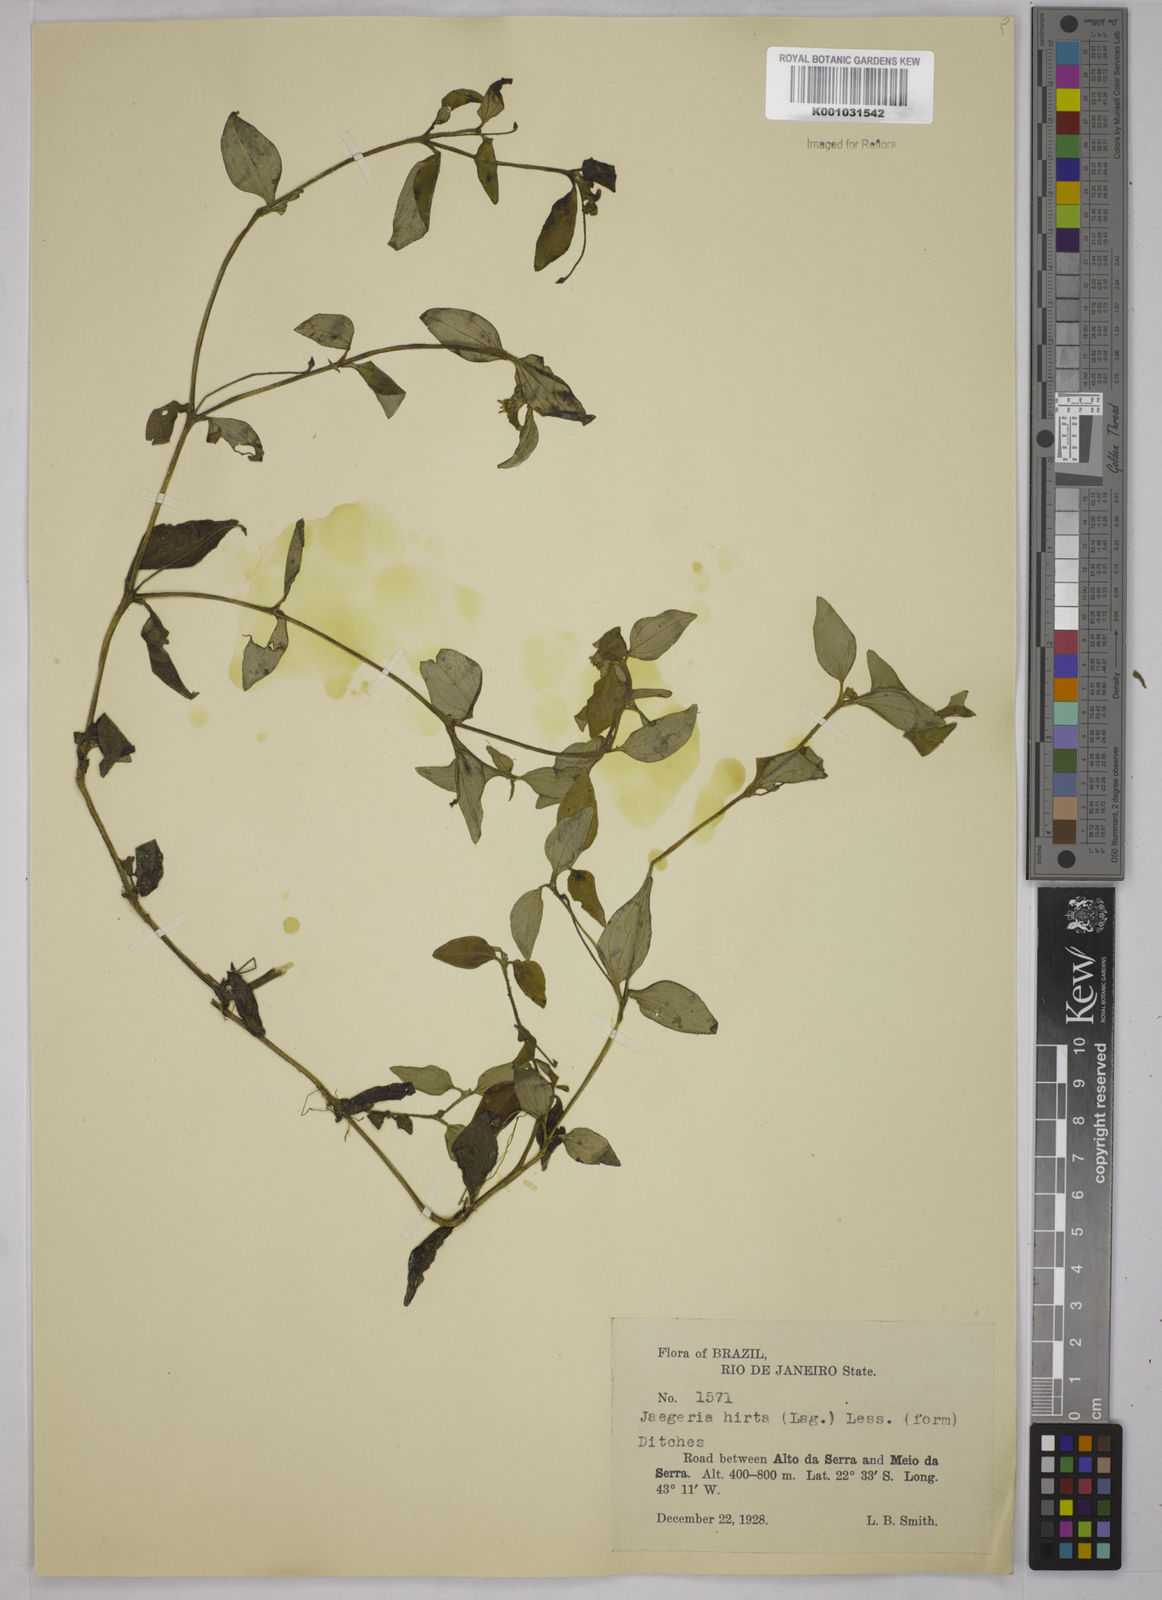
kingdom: Plantae
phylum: Tracheophyta
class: Magnoliopsida
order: Asterales
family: Asteraceae
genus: Jaegeria
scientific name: Jaegeria hirta
